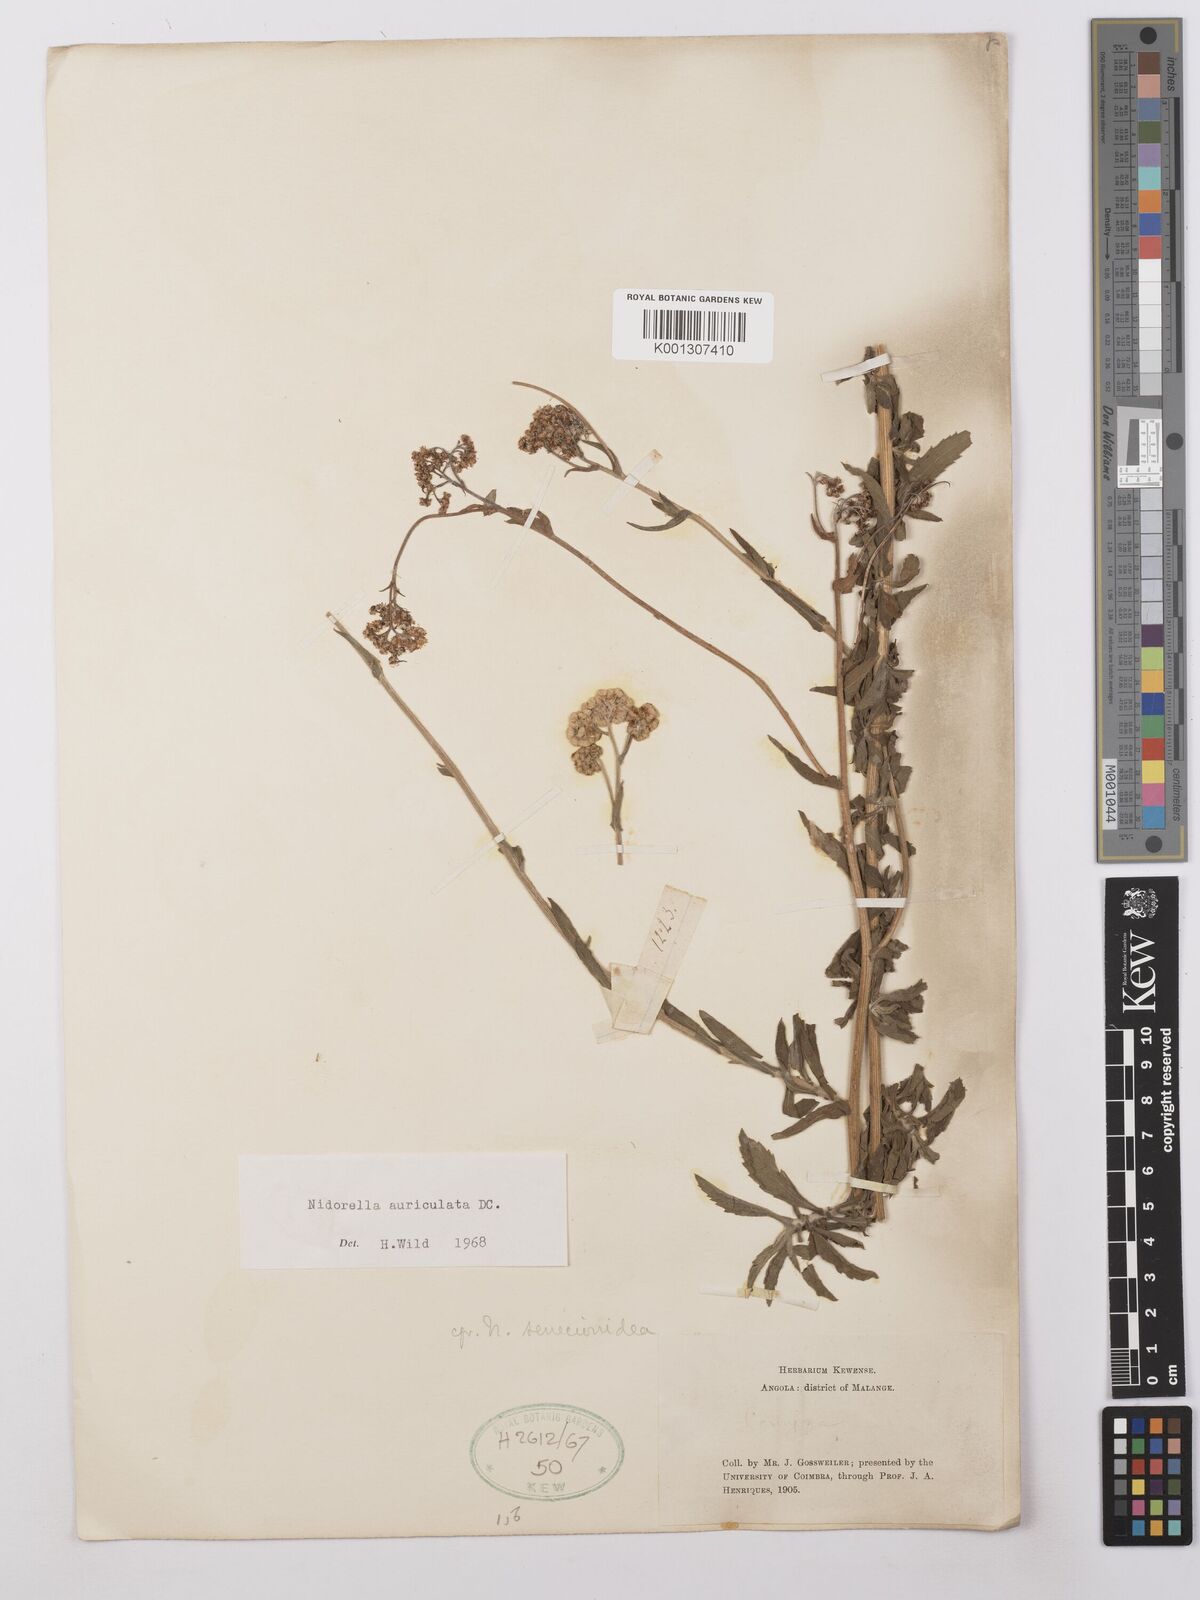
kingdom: Plantae
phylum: Tracheophyta
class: Magnoliopsida
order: Asterales
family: Asteraceae
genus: Nidorella
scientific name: Nidorella auriculata
